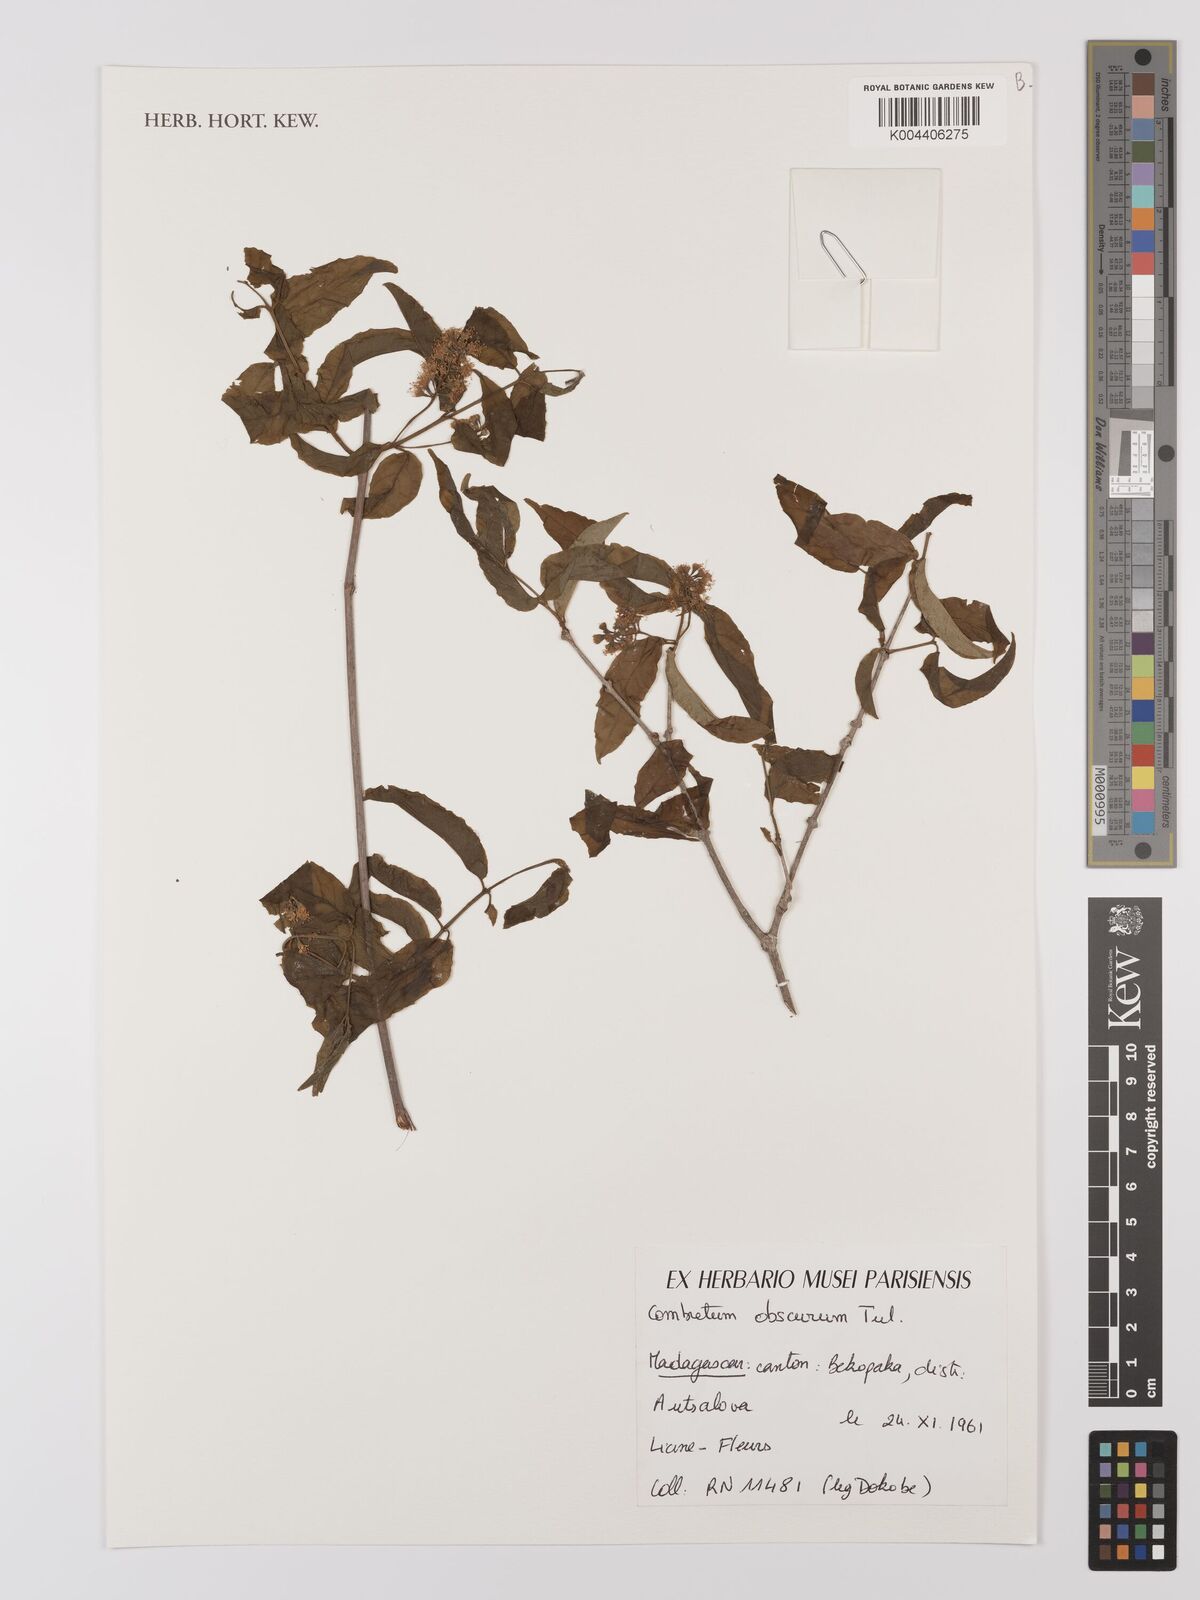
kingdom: Plantae
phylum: Tracheophyta
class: Magnoliopsida
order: Myrtales
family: Combretaceae
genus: Combretum
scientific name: Combretum obscurum
